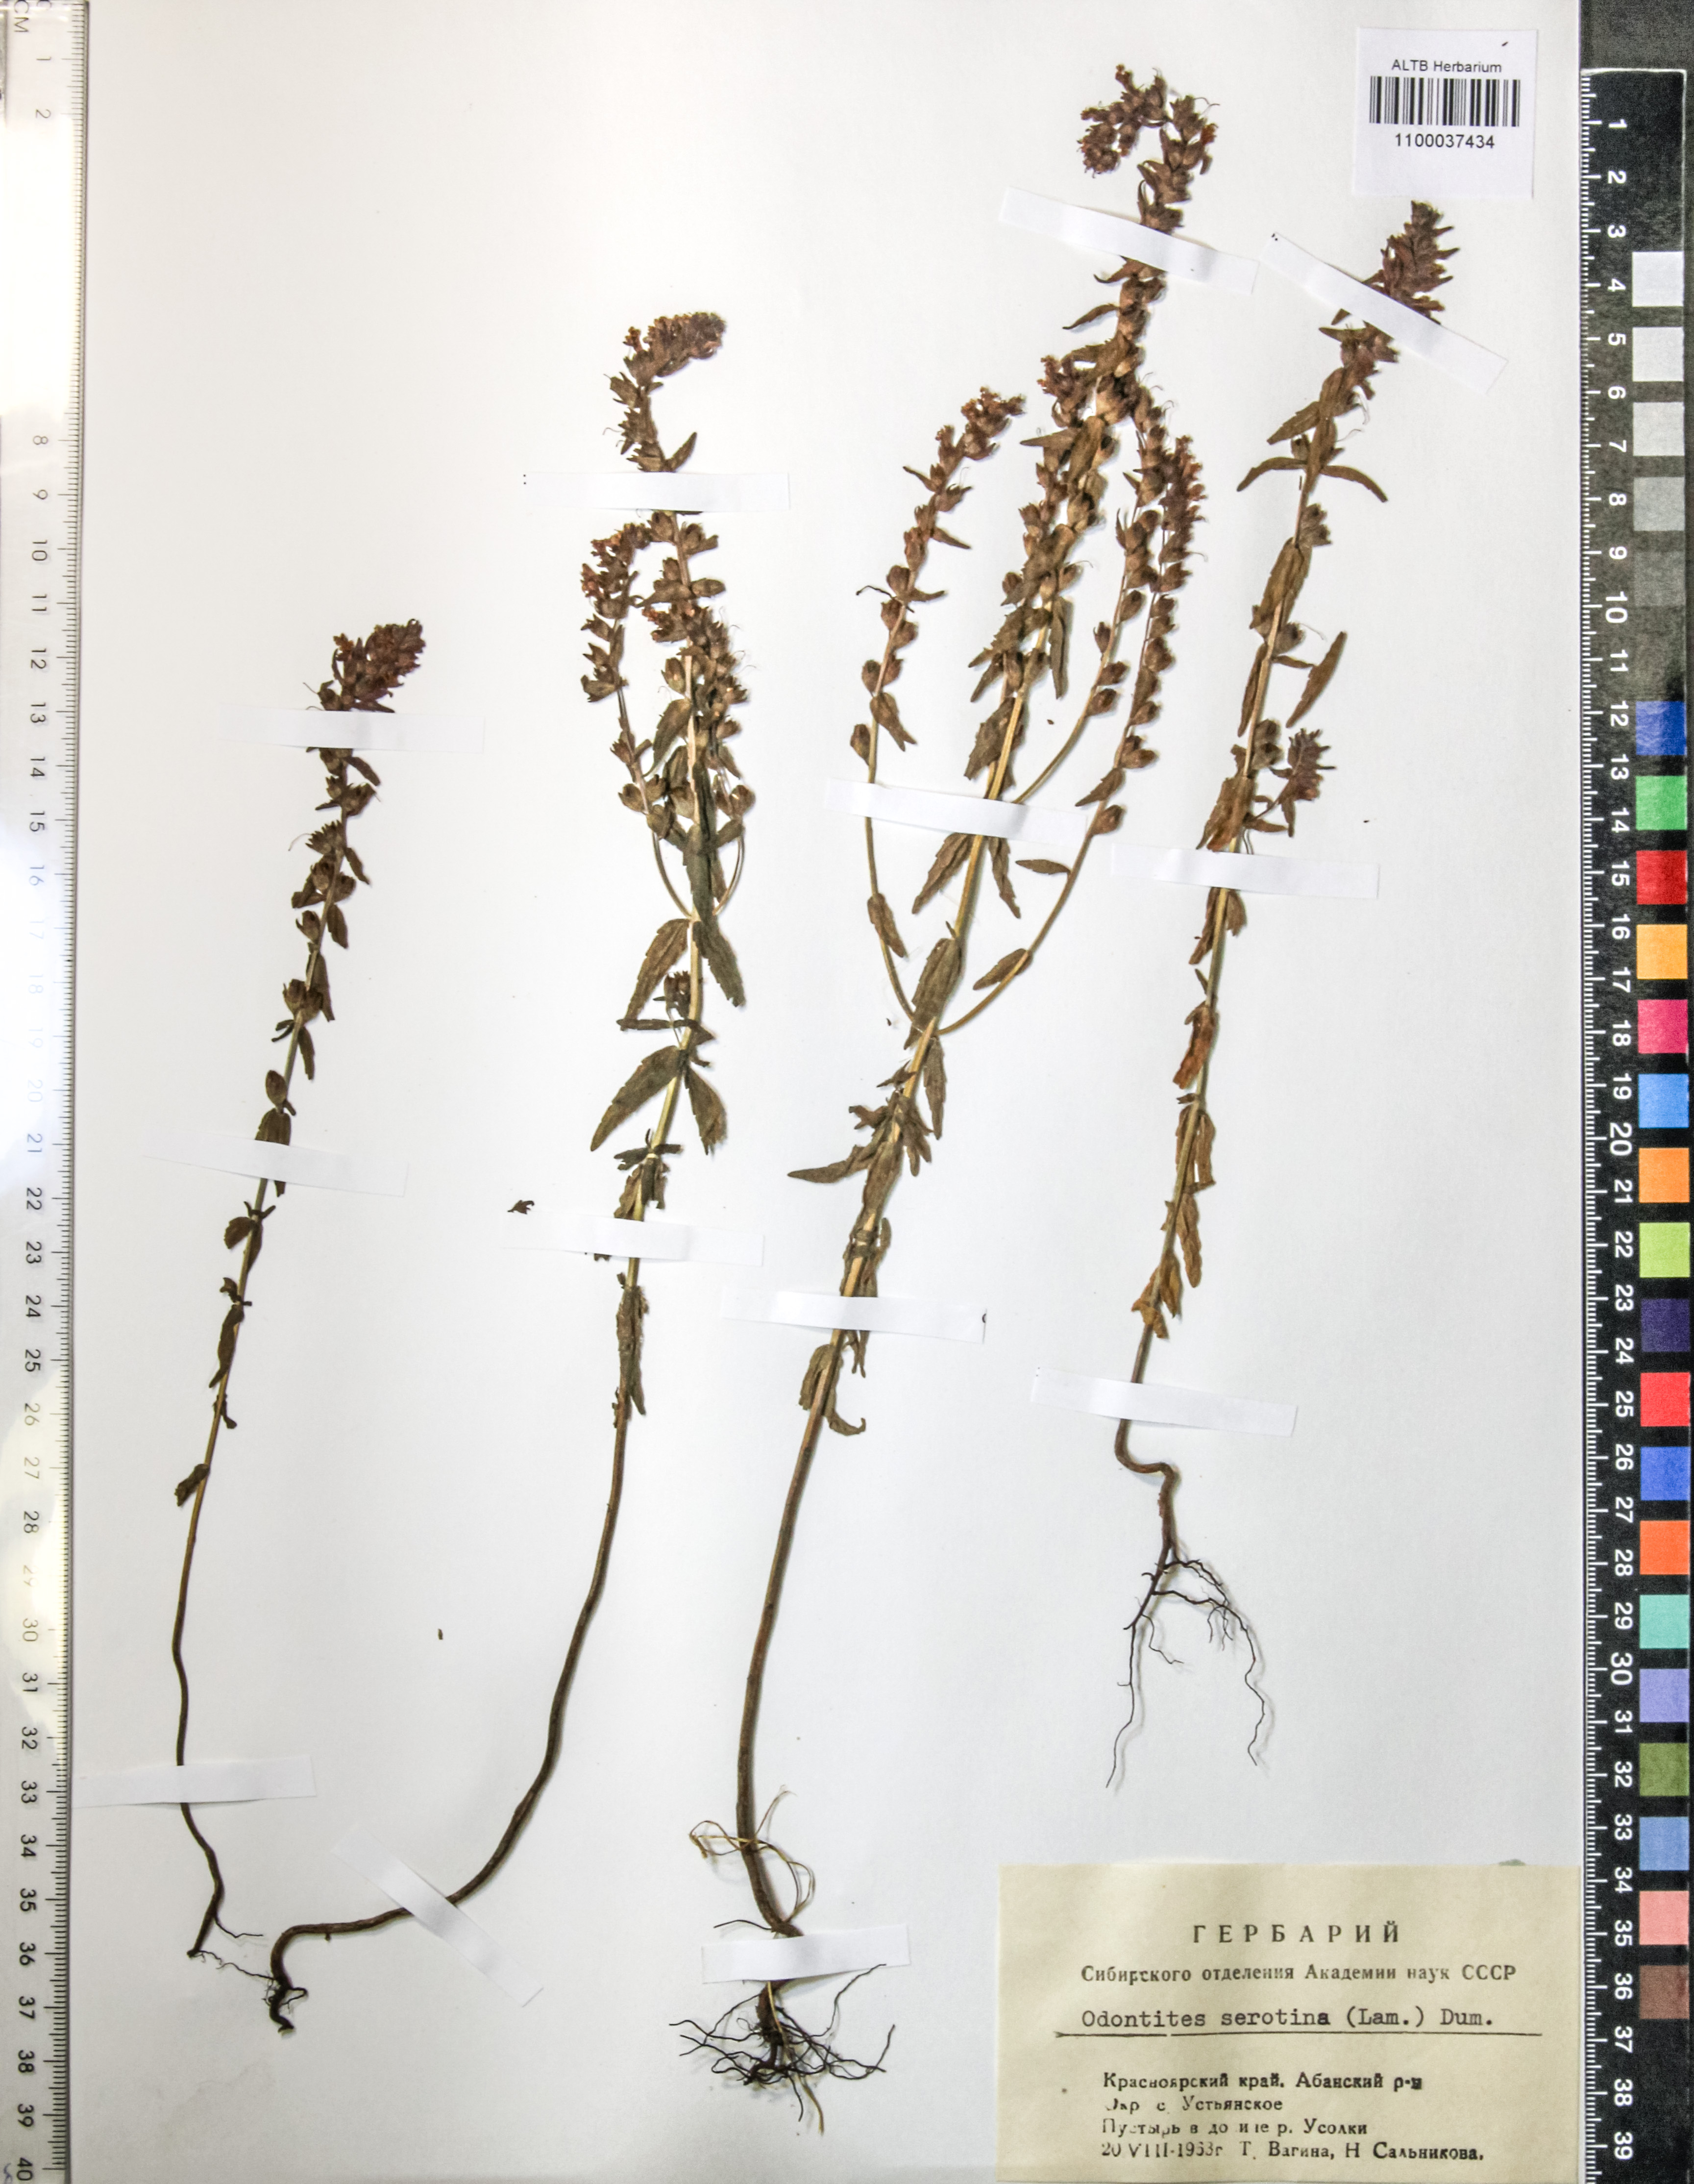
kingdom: Plantae
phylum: Tracheophyta
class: Magnoliopsida
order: Lamiales
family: Orobanchaceae
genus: Odontites
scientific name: Odontites vulgaris
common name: Broomrape
